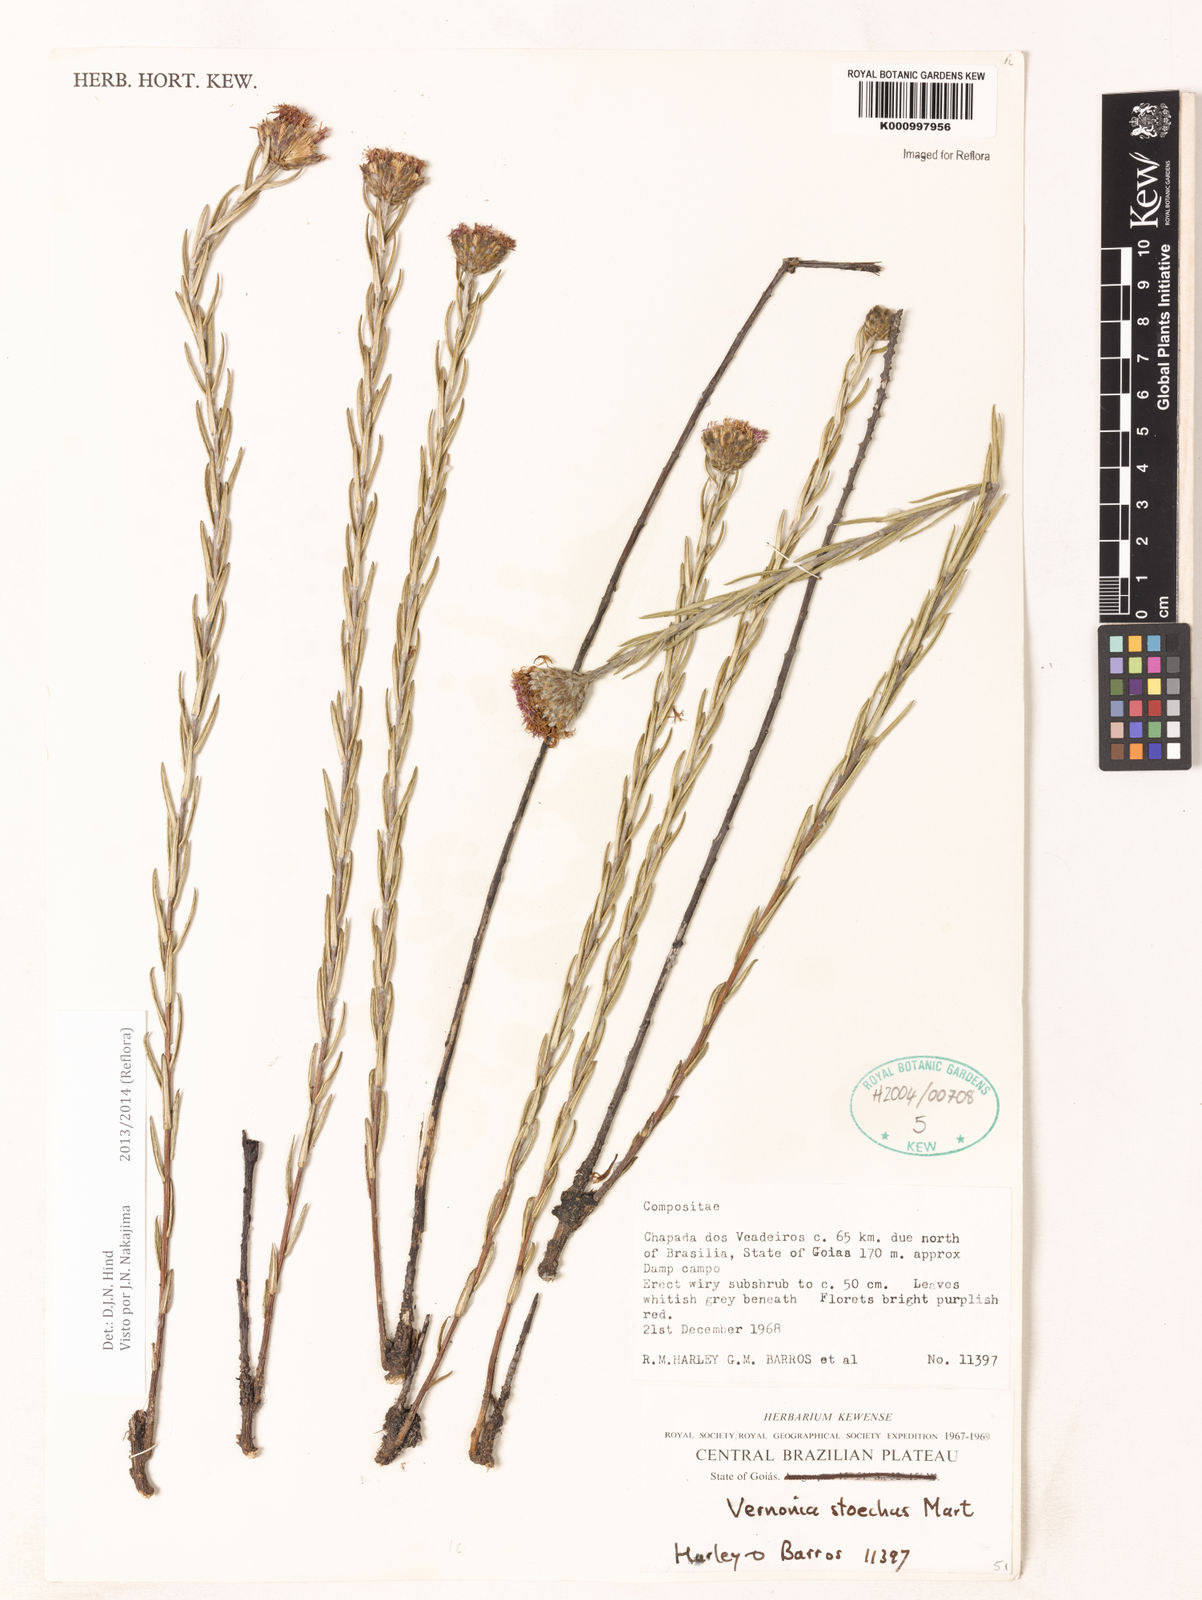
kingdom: Plantae
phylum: Tracheophyta
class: Magnoliopsida
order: Asterales
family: Asteraceae
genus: Lessingianthus
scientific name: Lessingianthus stoechas
